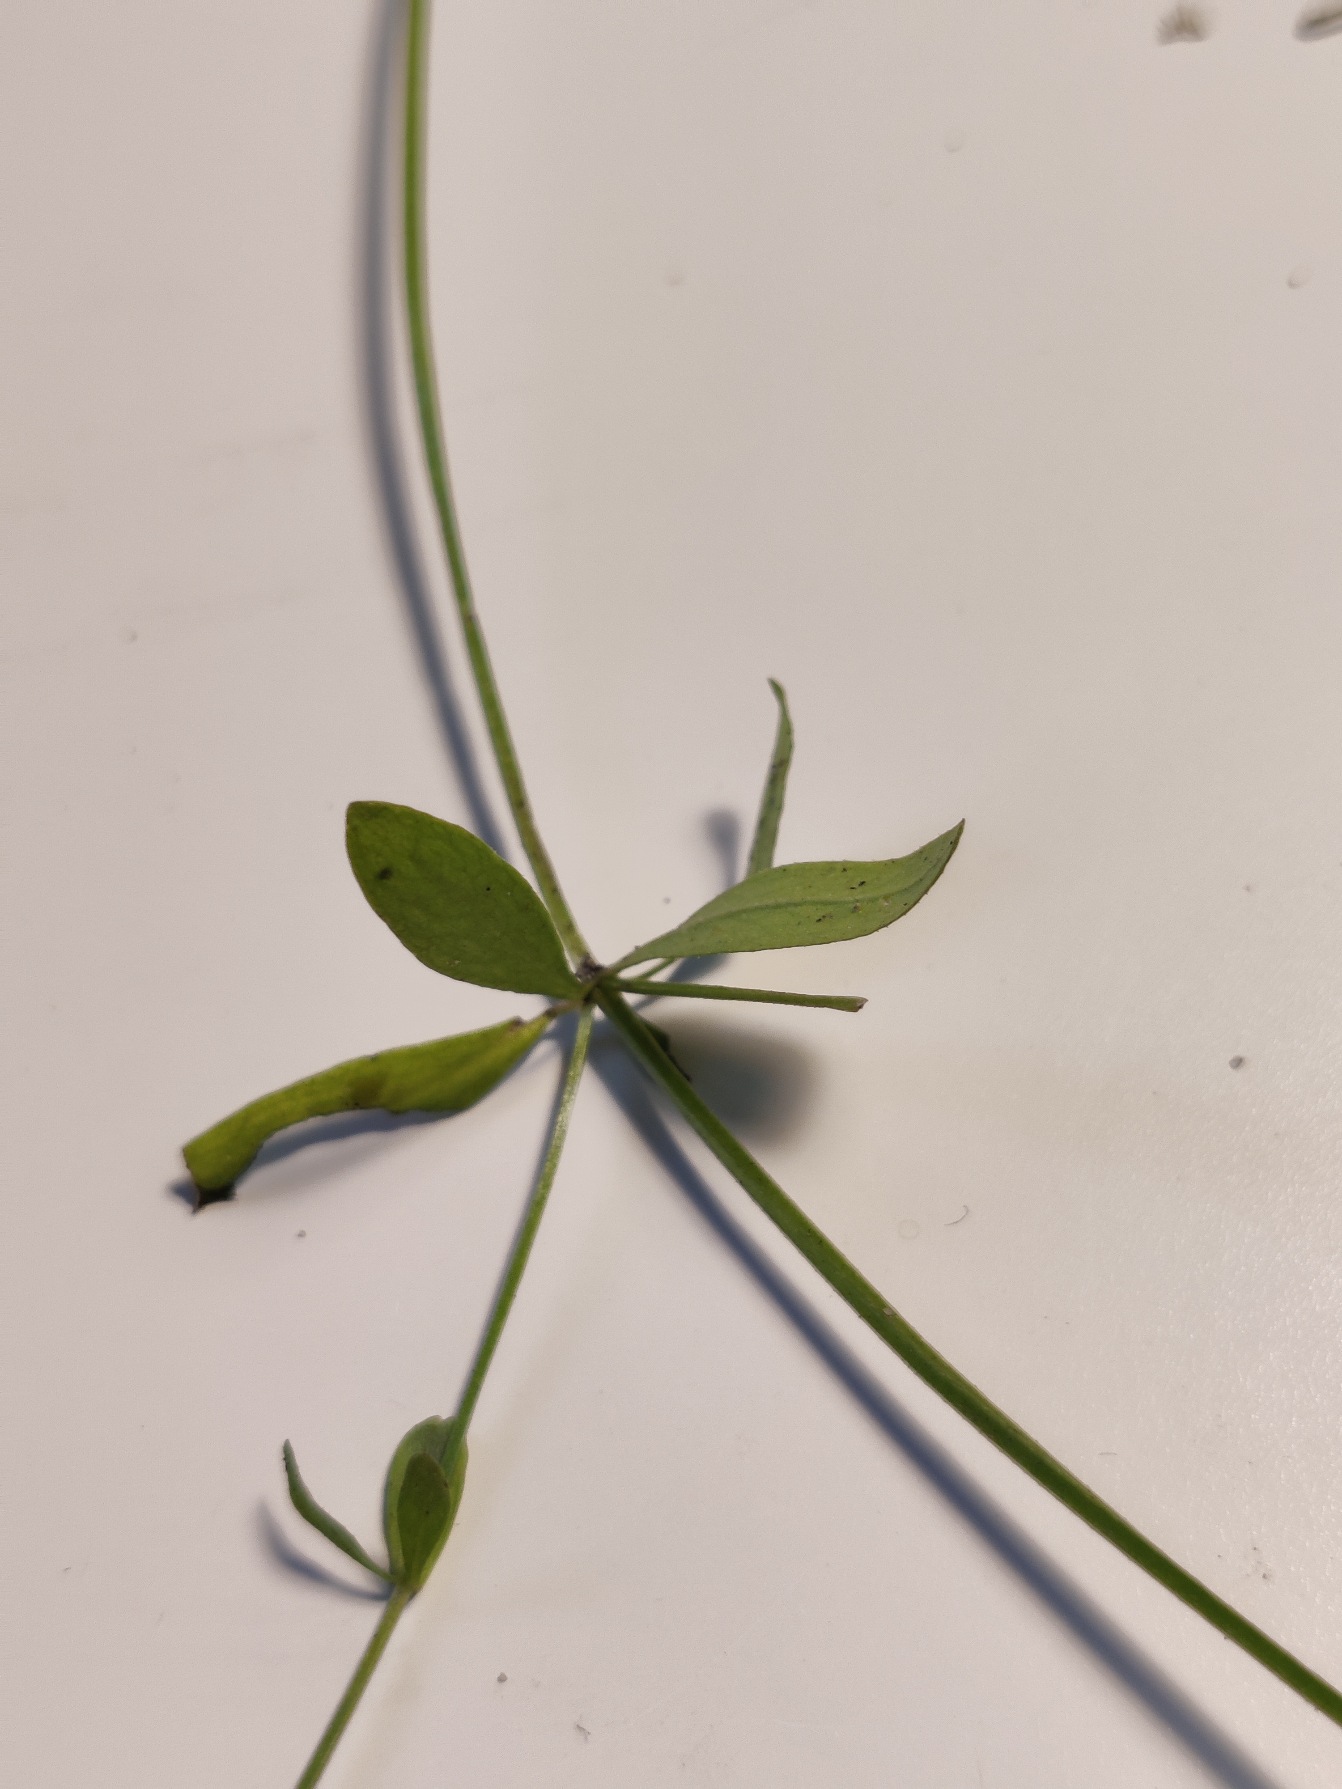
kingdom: Plantae
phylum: Tracheophyta
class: Magnoliopsida
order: Gentianales
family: Rubiaceae
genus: Galium
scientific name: Galium palustre
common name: Kær-snerre
